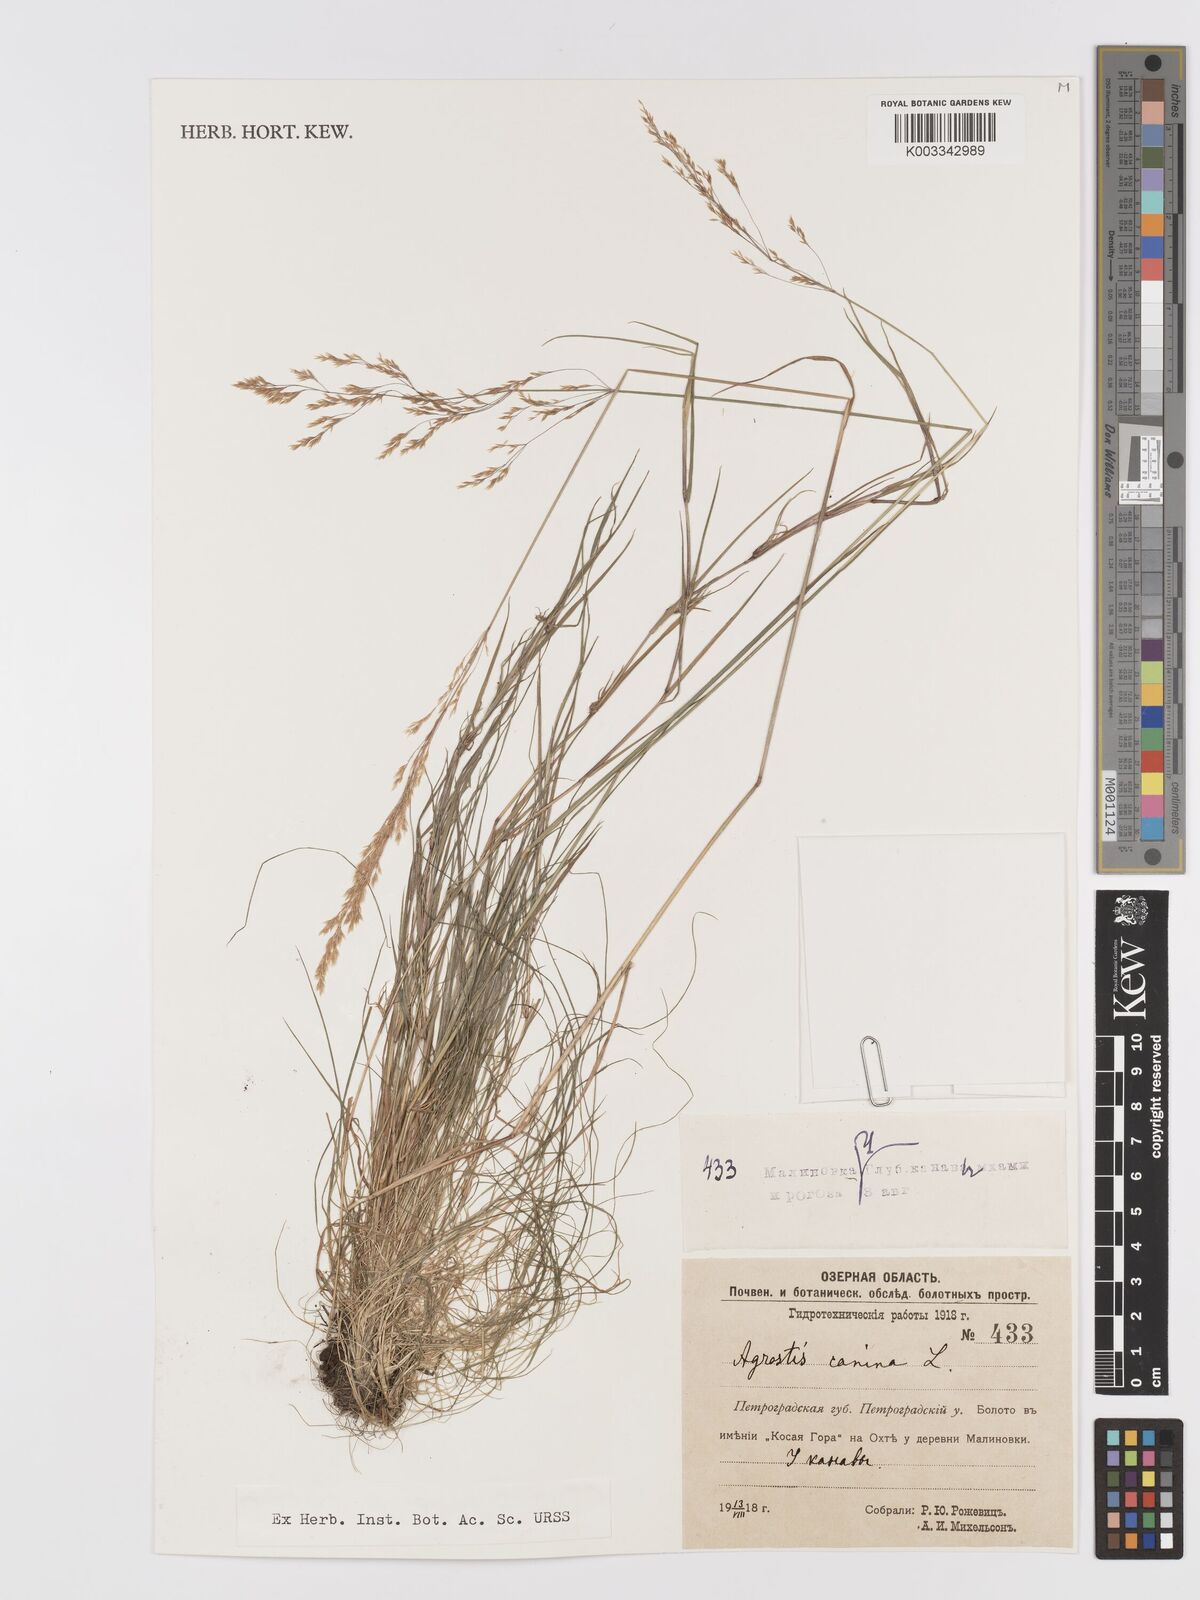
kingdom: Plantae
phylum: Tracheophyta
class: Liliopsida
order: Poales
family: Poaceae
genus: Agrostis
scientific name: Agrostis canina
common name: Velvet bent
